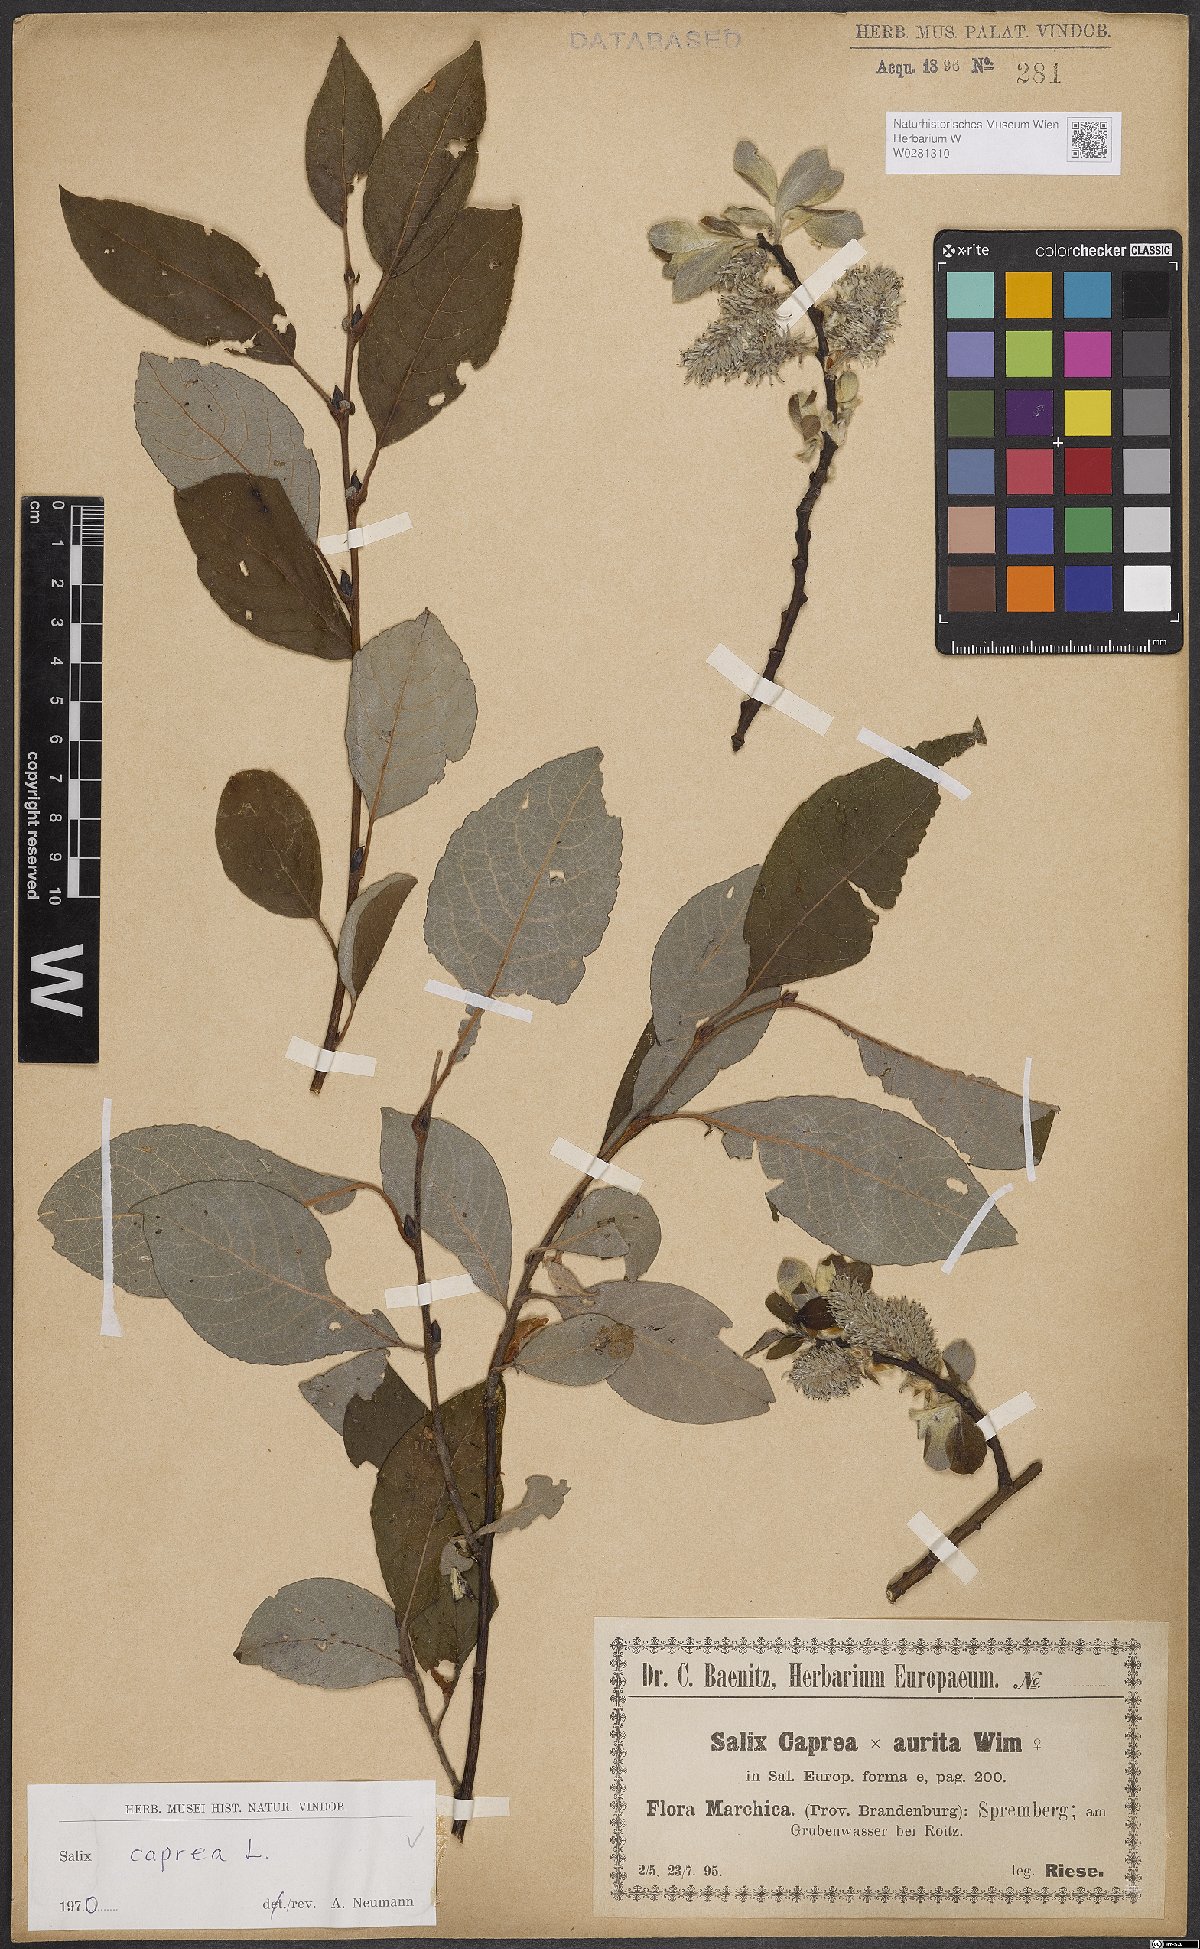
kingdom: Plantae
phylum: Tracheophyta
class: Magnoliopsida
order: Malpighiales
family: Salicaceae
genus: Salix
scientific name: Salix caprea
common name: Goat willow
